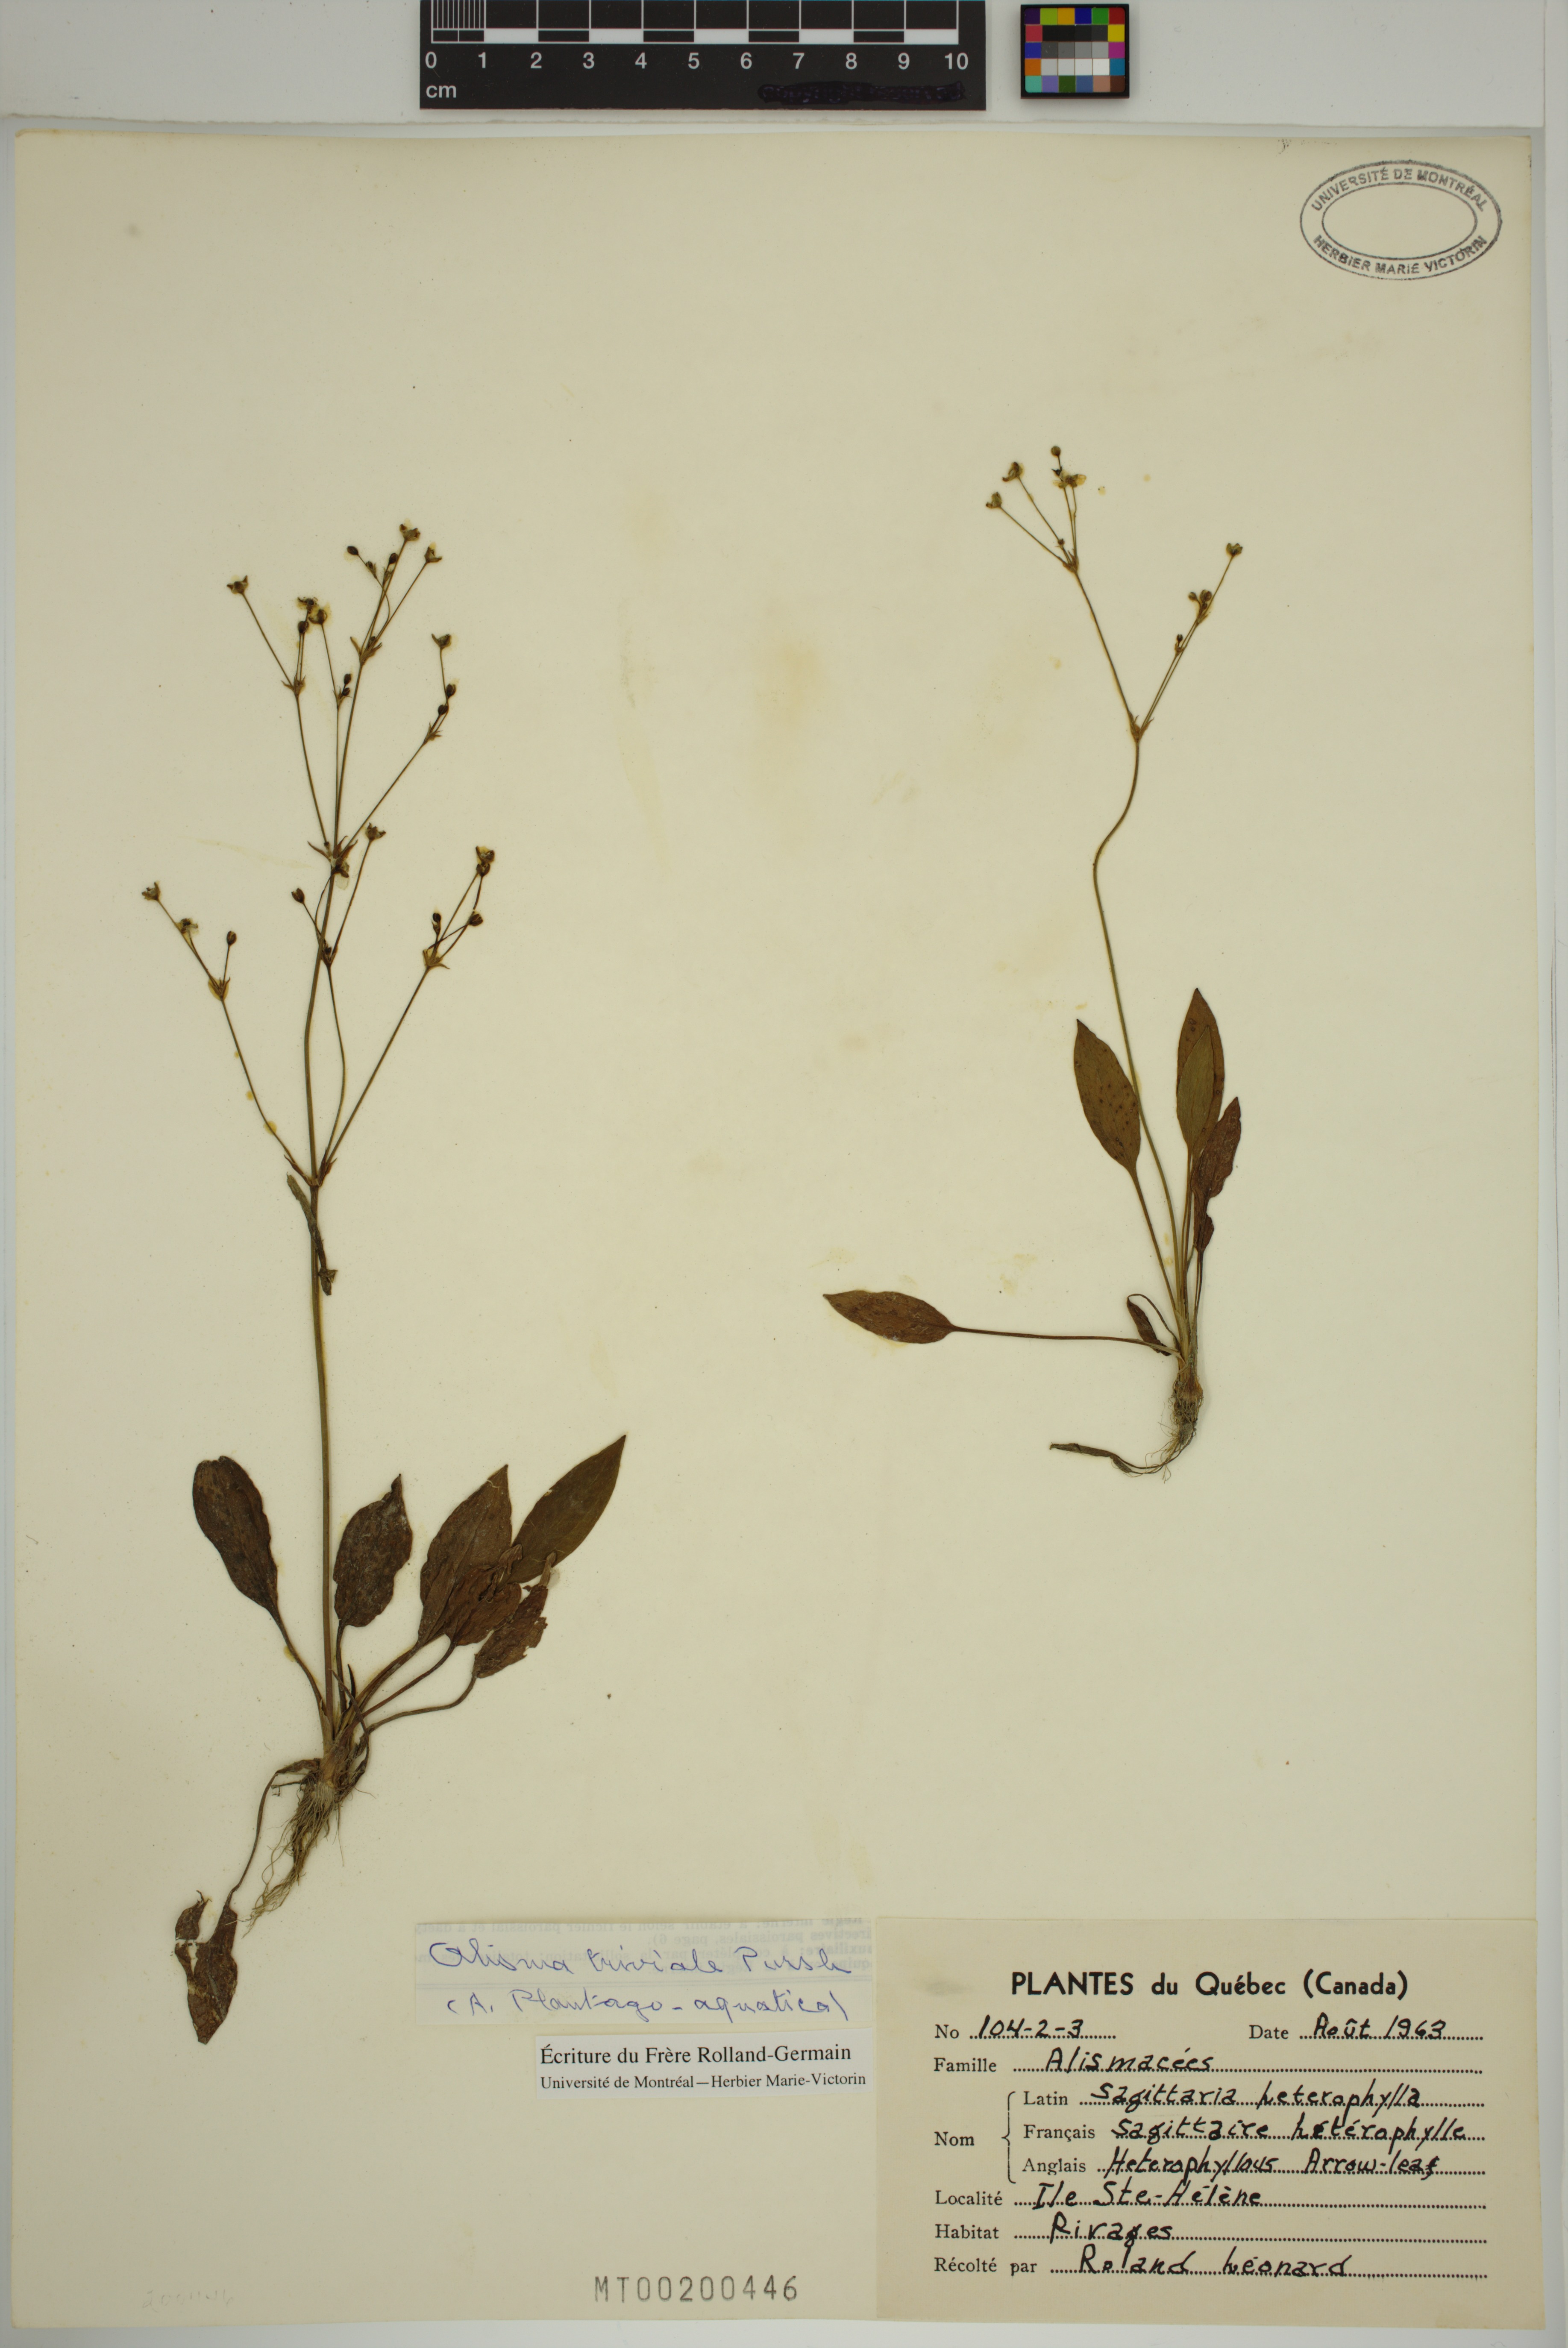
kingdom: Plantae
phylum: Tracheophyta
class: Liliopsida
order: Alismatales
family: Alismataceae
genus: Alisma
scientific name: Alisma triviale
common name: Northern water-plantain
